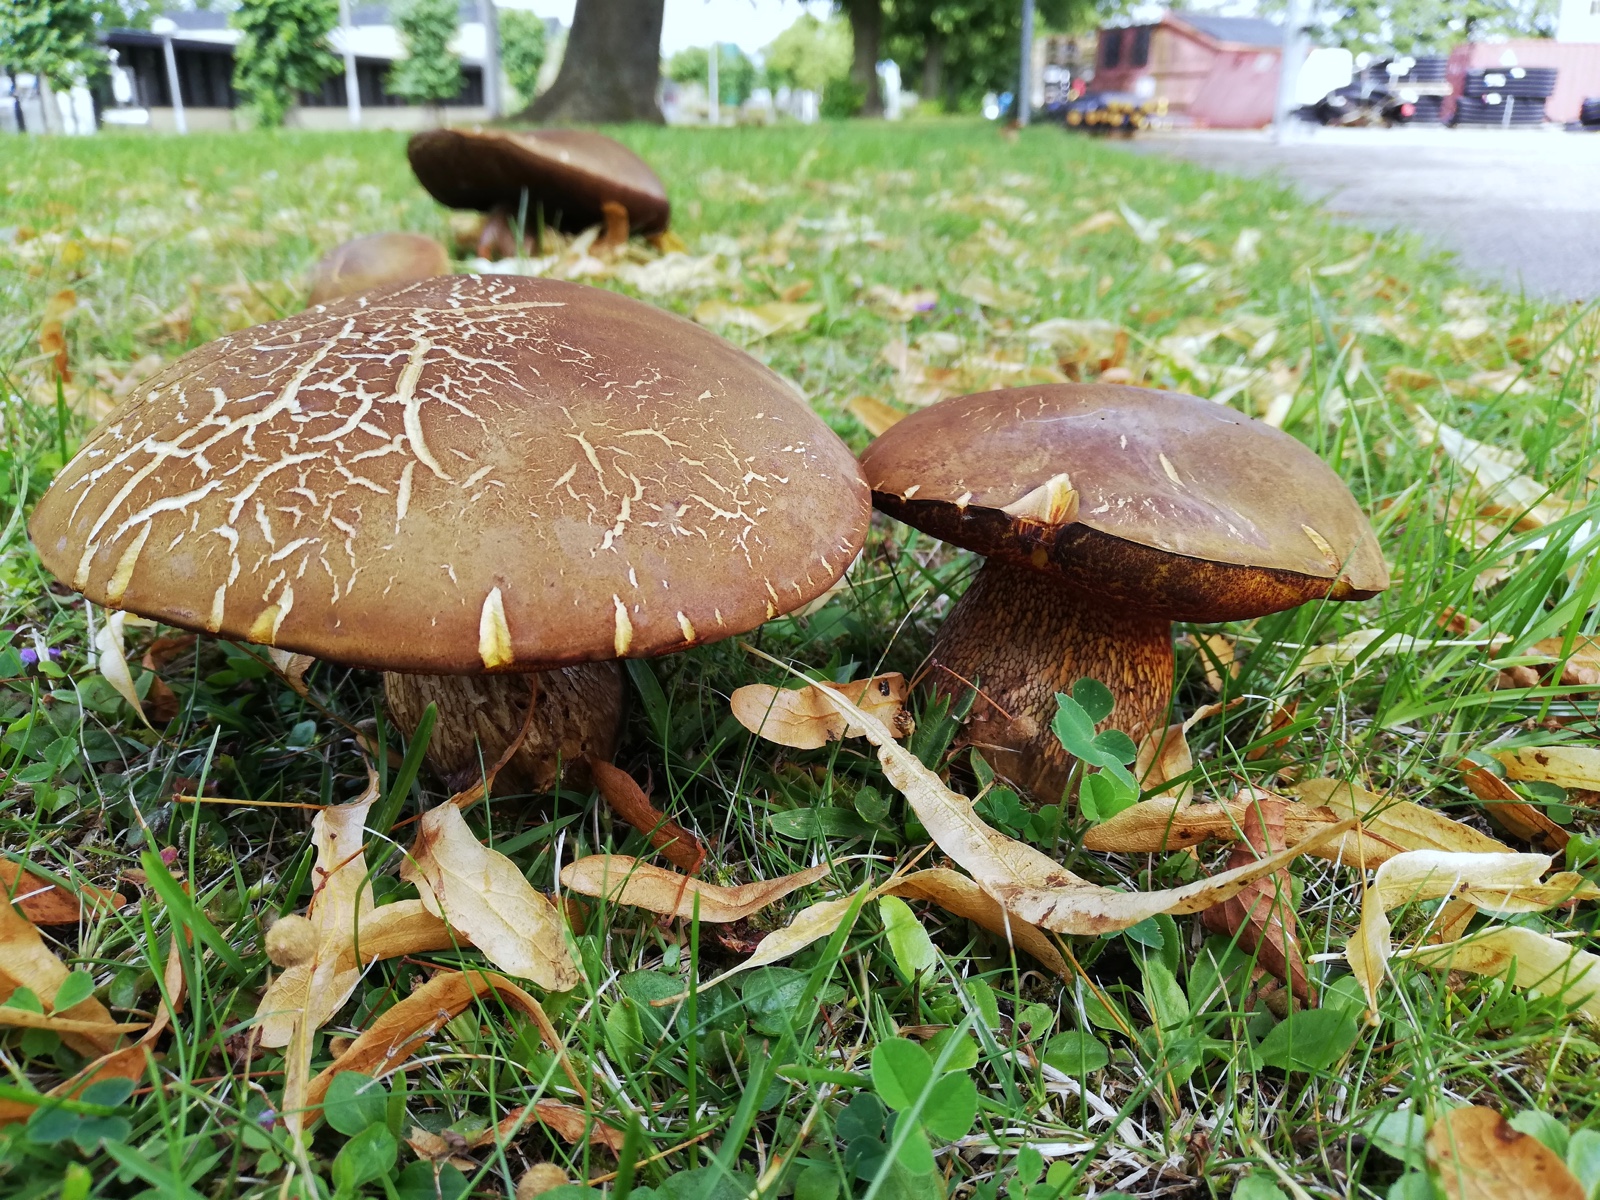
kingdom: Fungi
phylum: Basidiomycota
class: Agaricomycetes
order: Boletales
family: Boletaceae
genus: Suillellus
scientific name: Suillellus luridus
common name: netstokket indigorørhat
